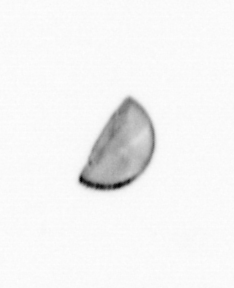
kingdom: Chromista
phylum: Ochrophyta
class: Bacillariophyceae
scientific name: Bacillariophyceae
